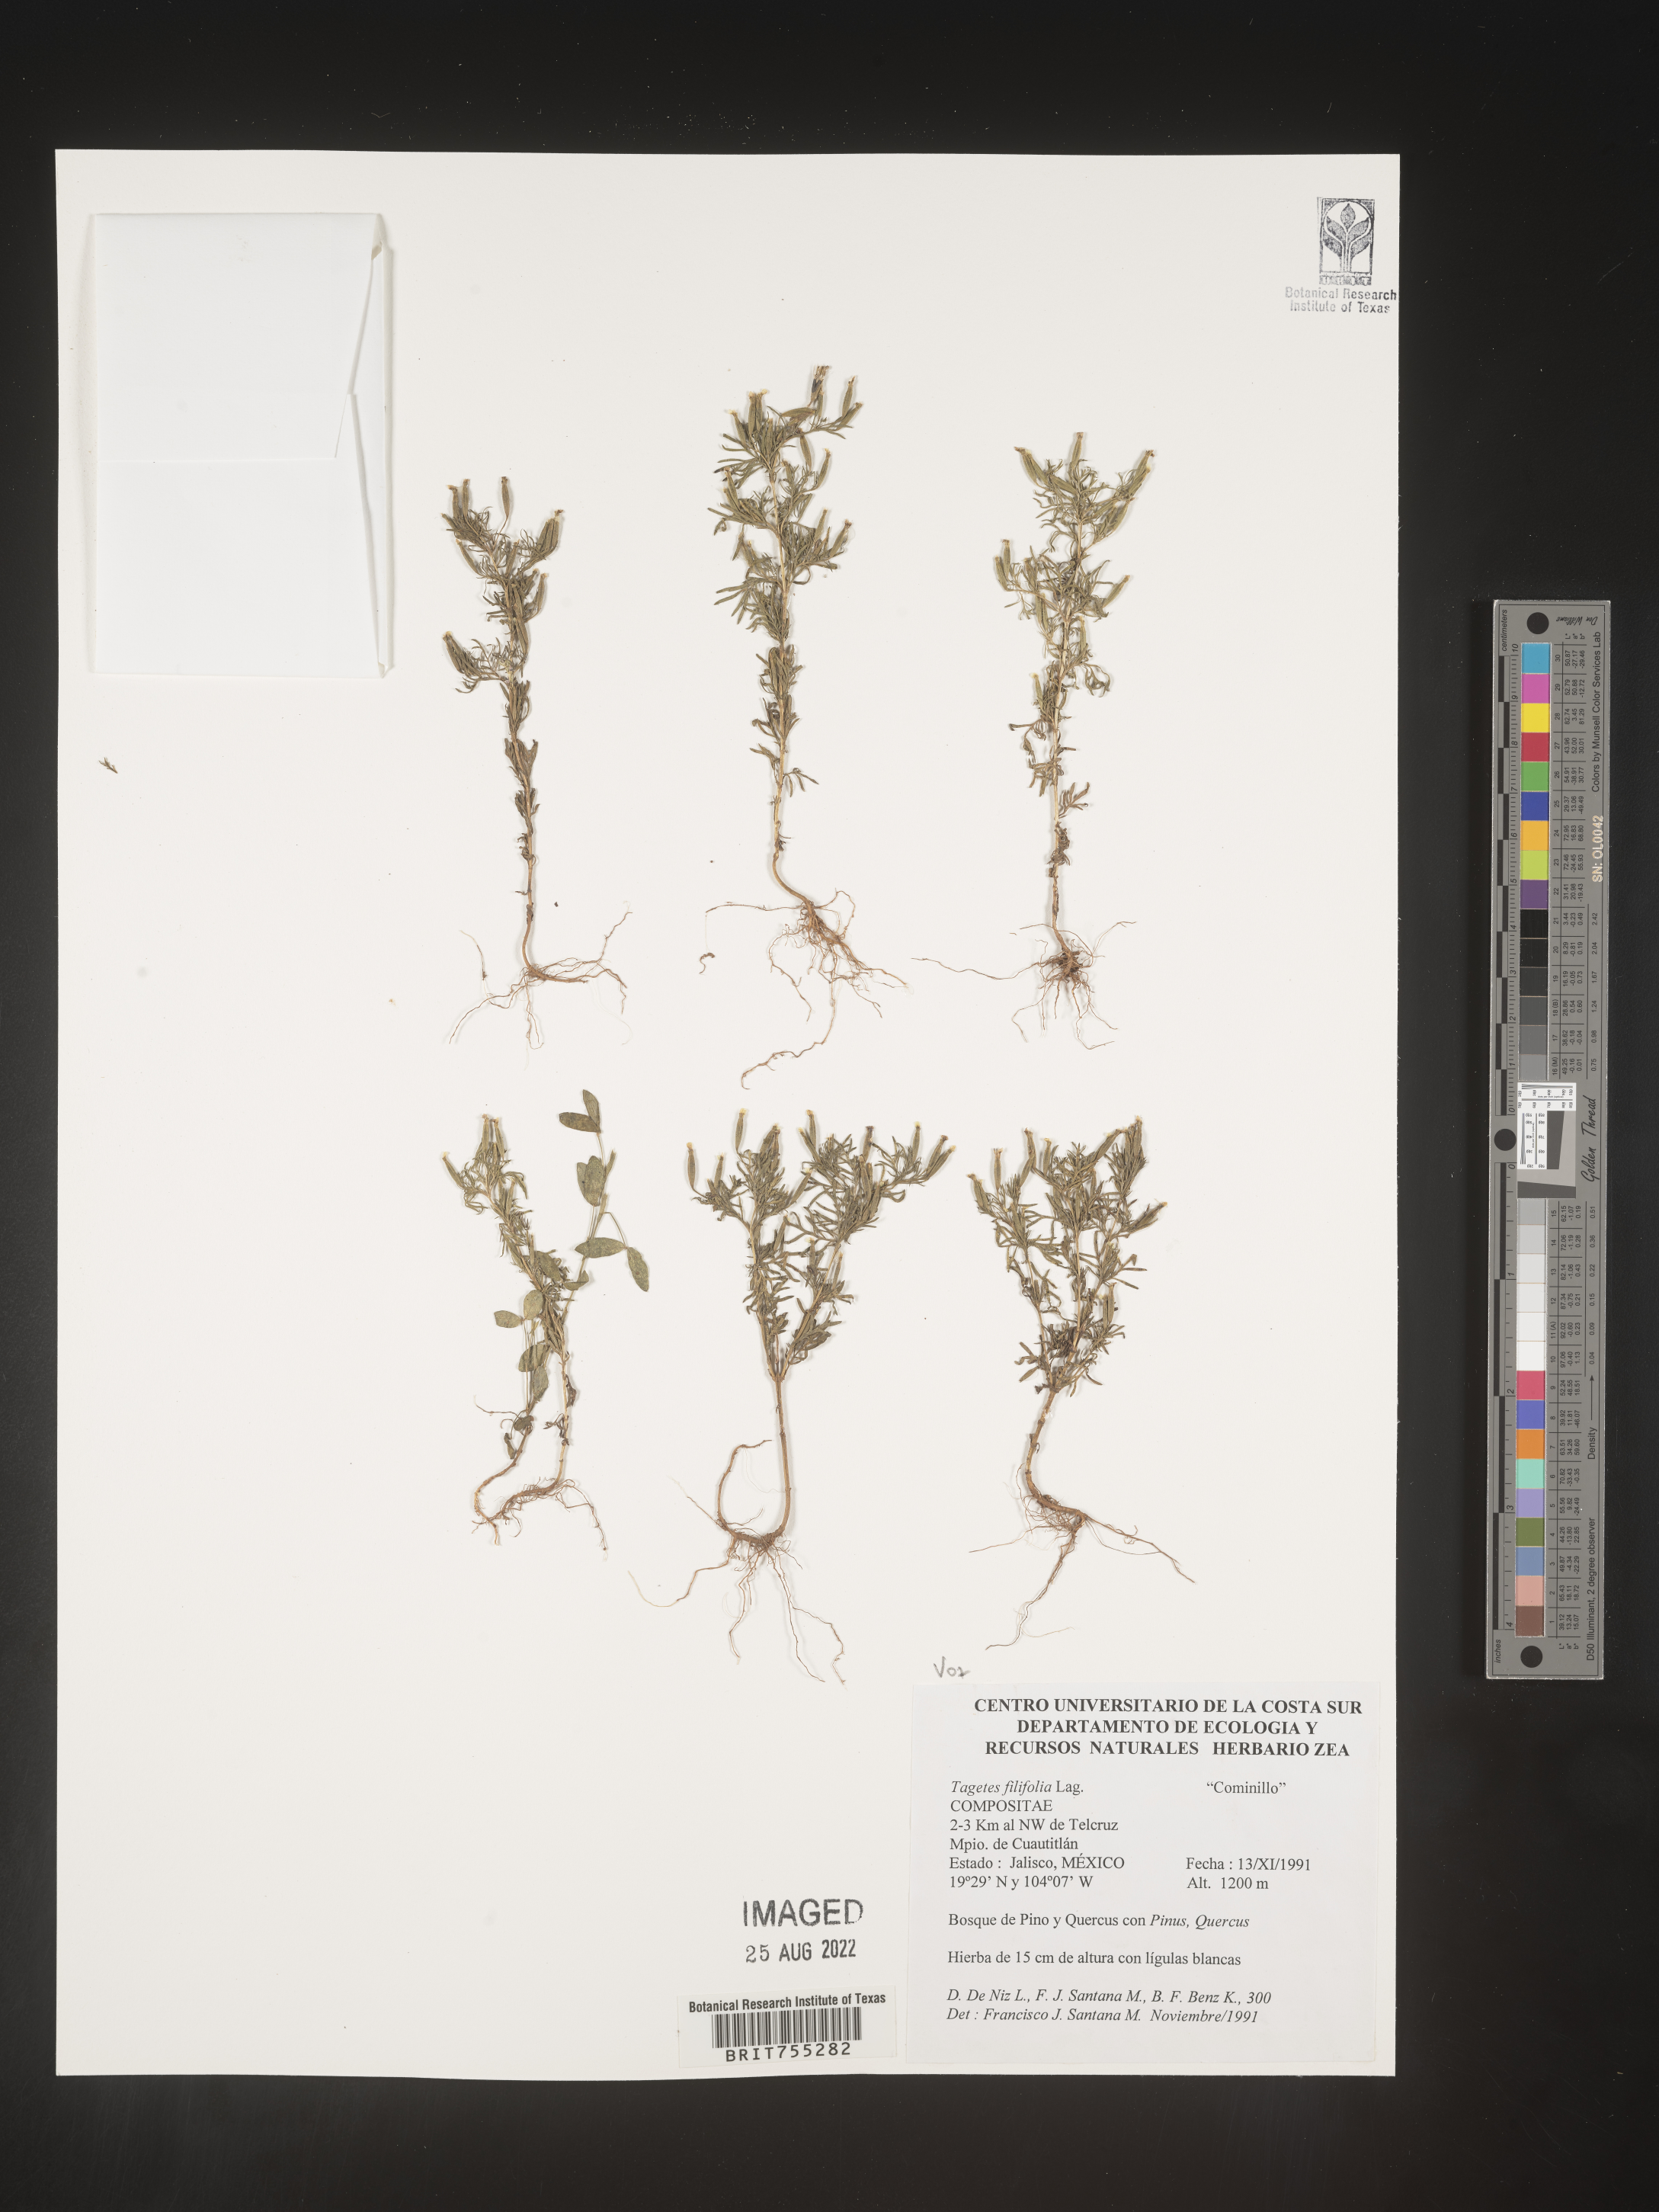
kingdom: Plantae
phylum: Tracheophyta
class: Magnoliopsida
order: Asterales
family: Asteraceae
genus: Tagetes
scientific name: Tagetes
